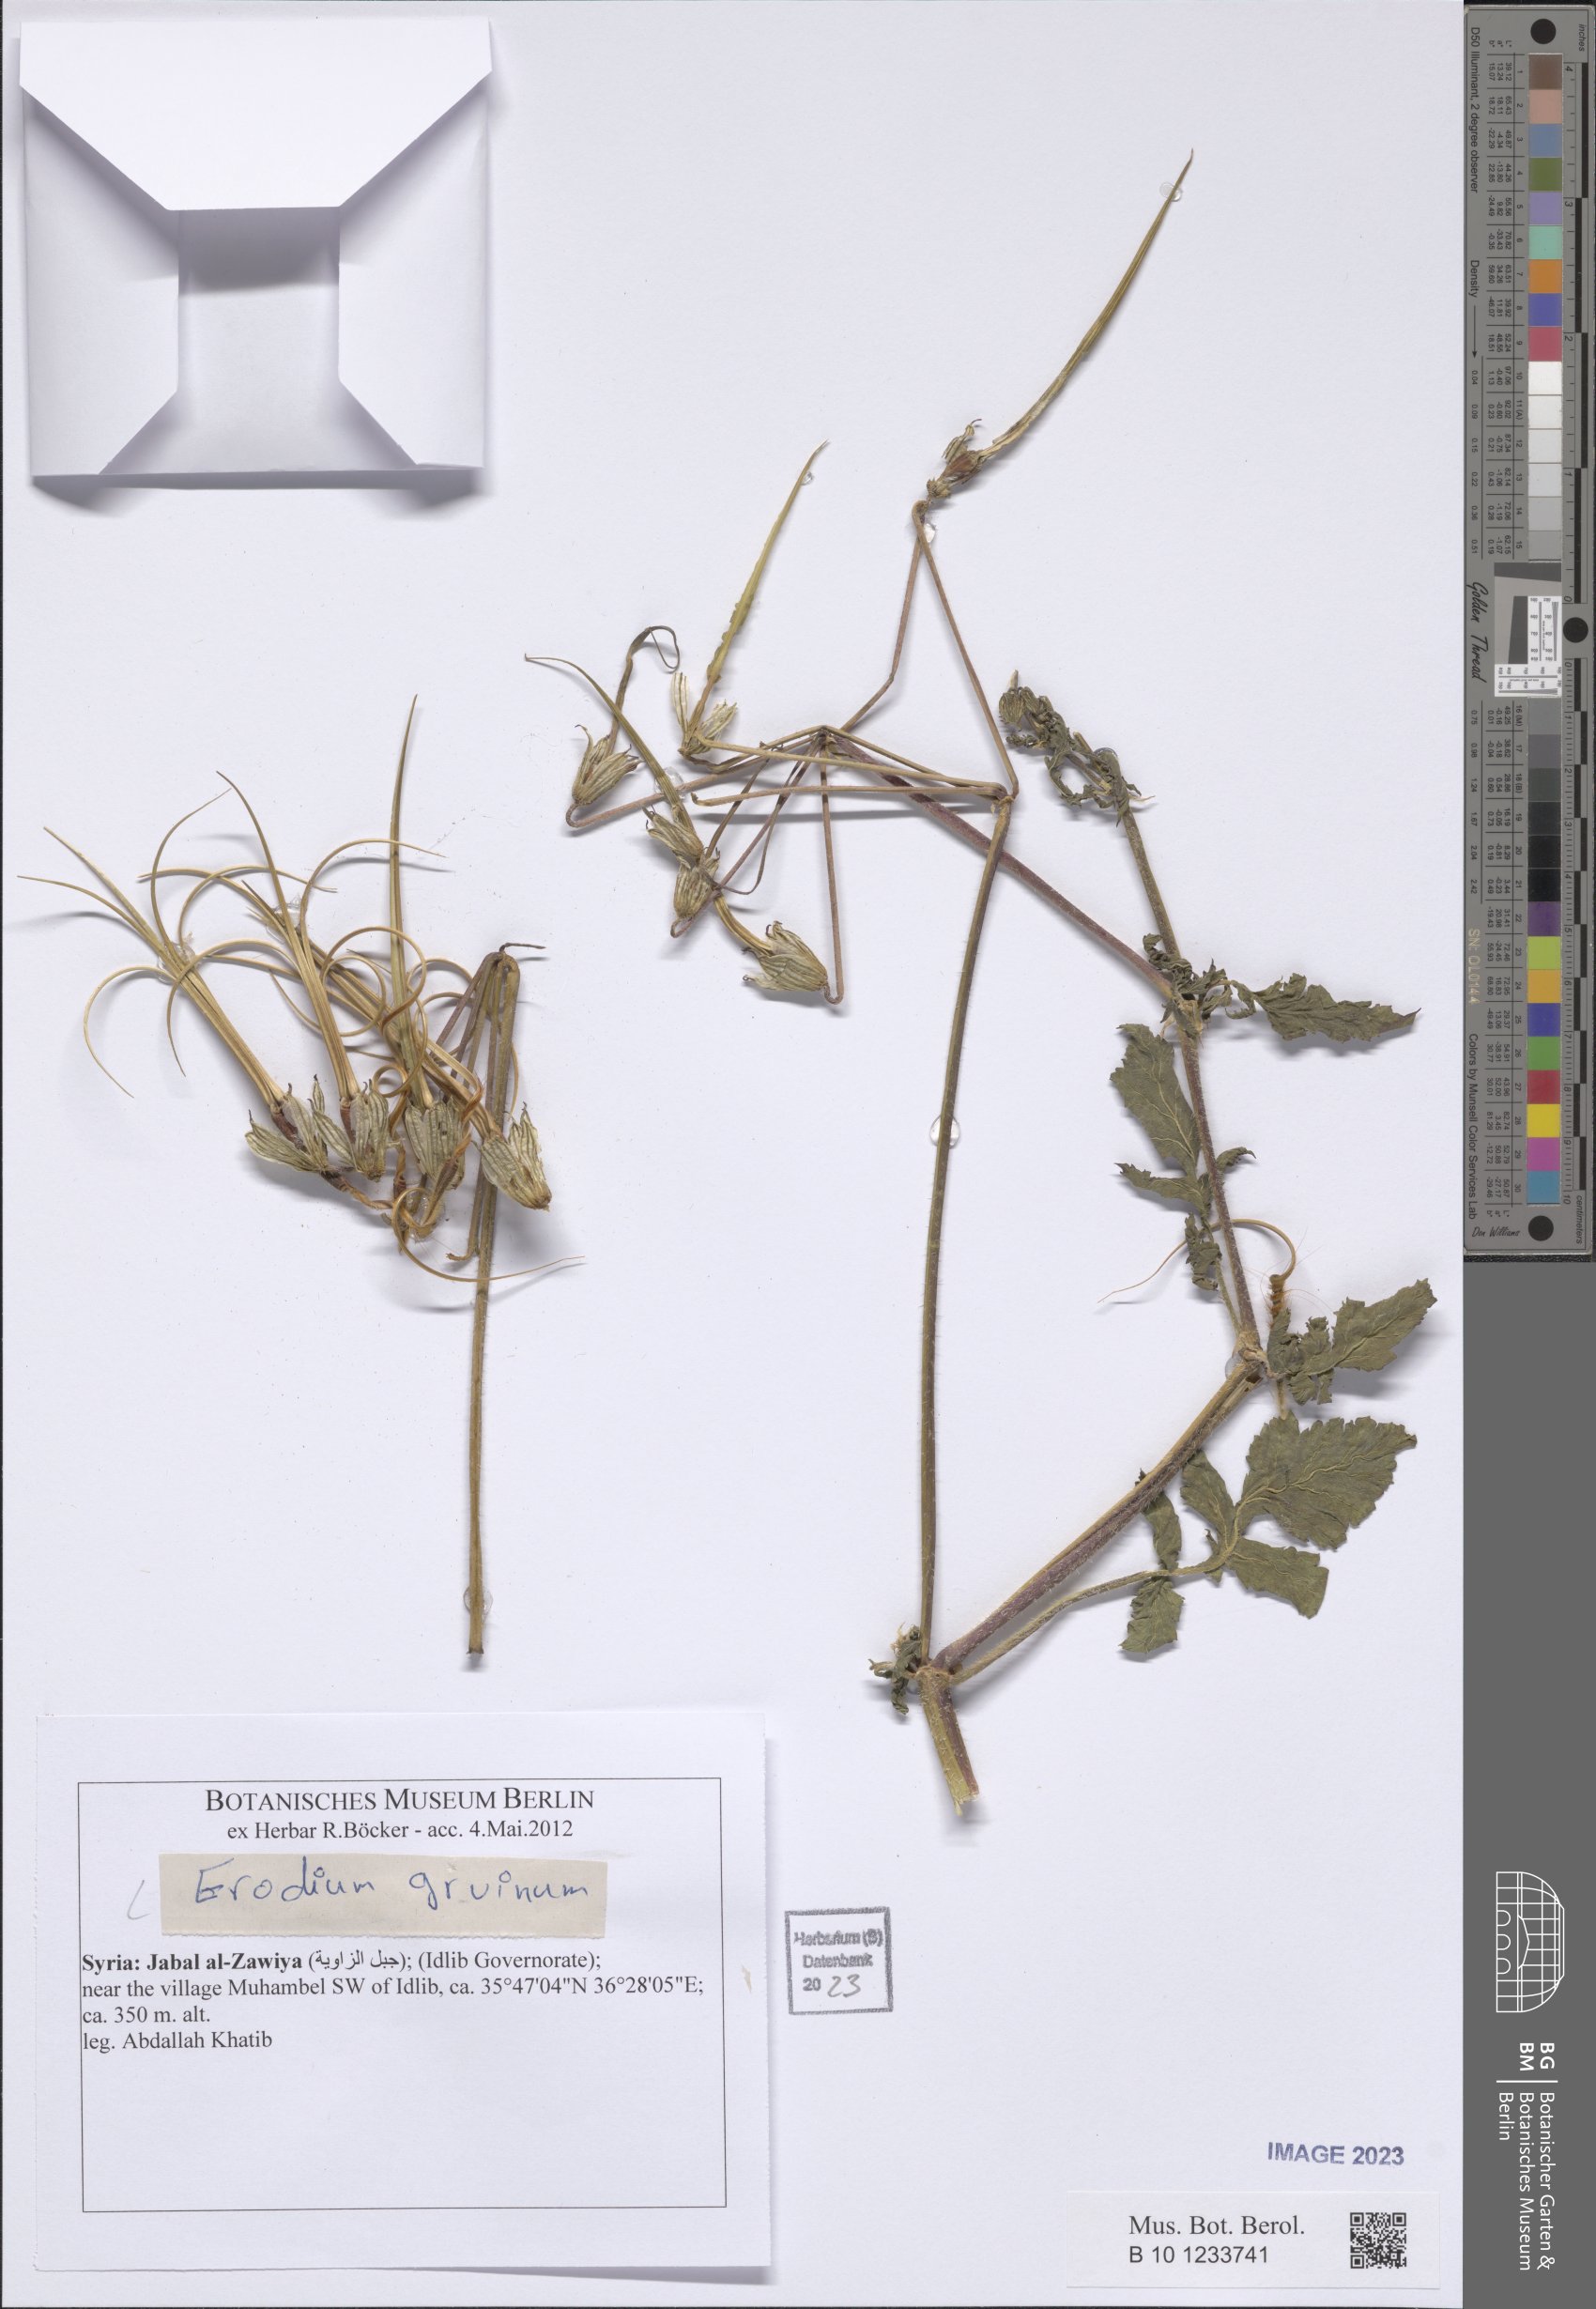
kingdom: Plantae
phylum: Tracheophyta
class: Magnoliopsida
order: Geraniales
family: Geraniaceae
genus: Erodium
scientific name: Erodium gruinum
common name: Iranian stork's bill
